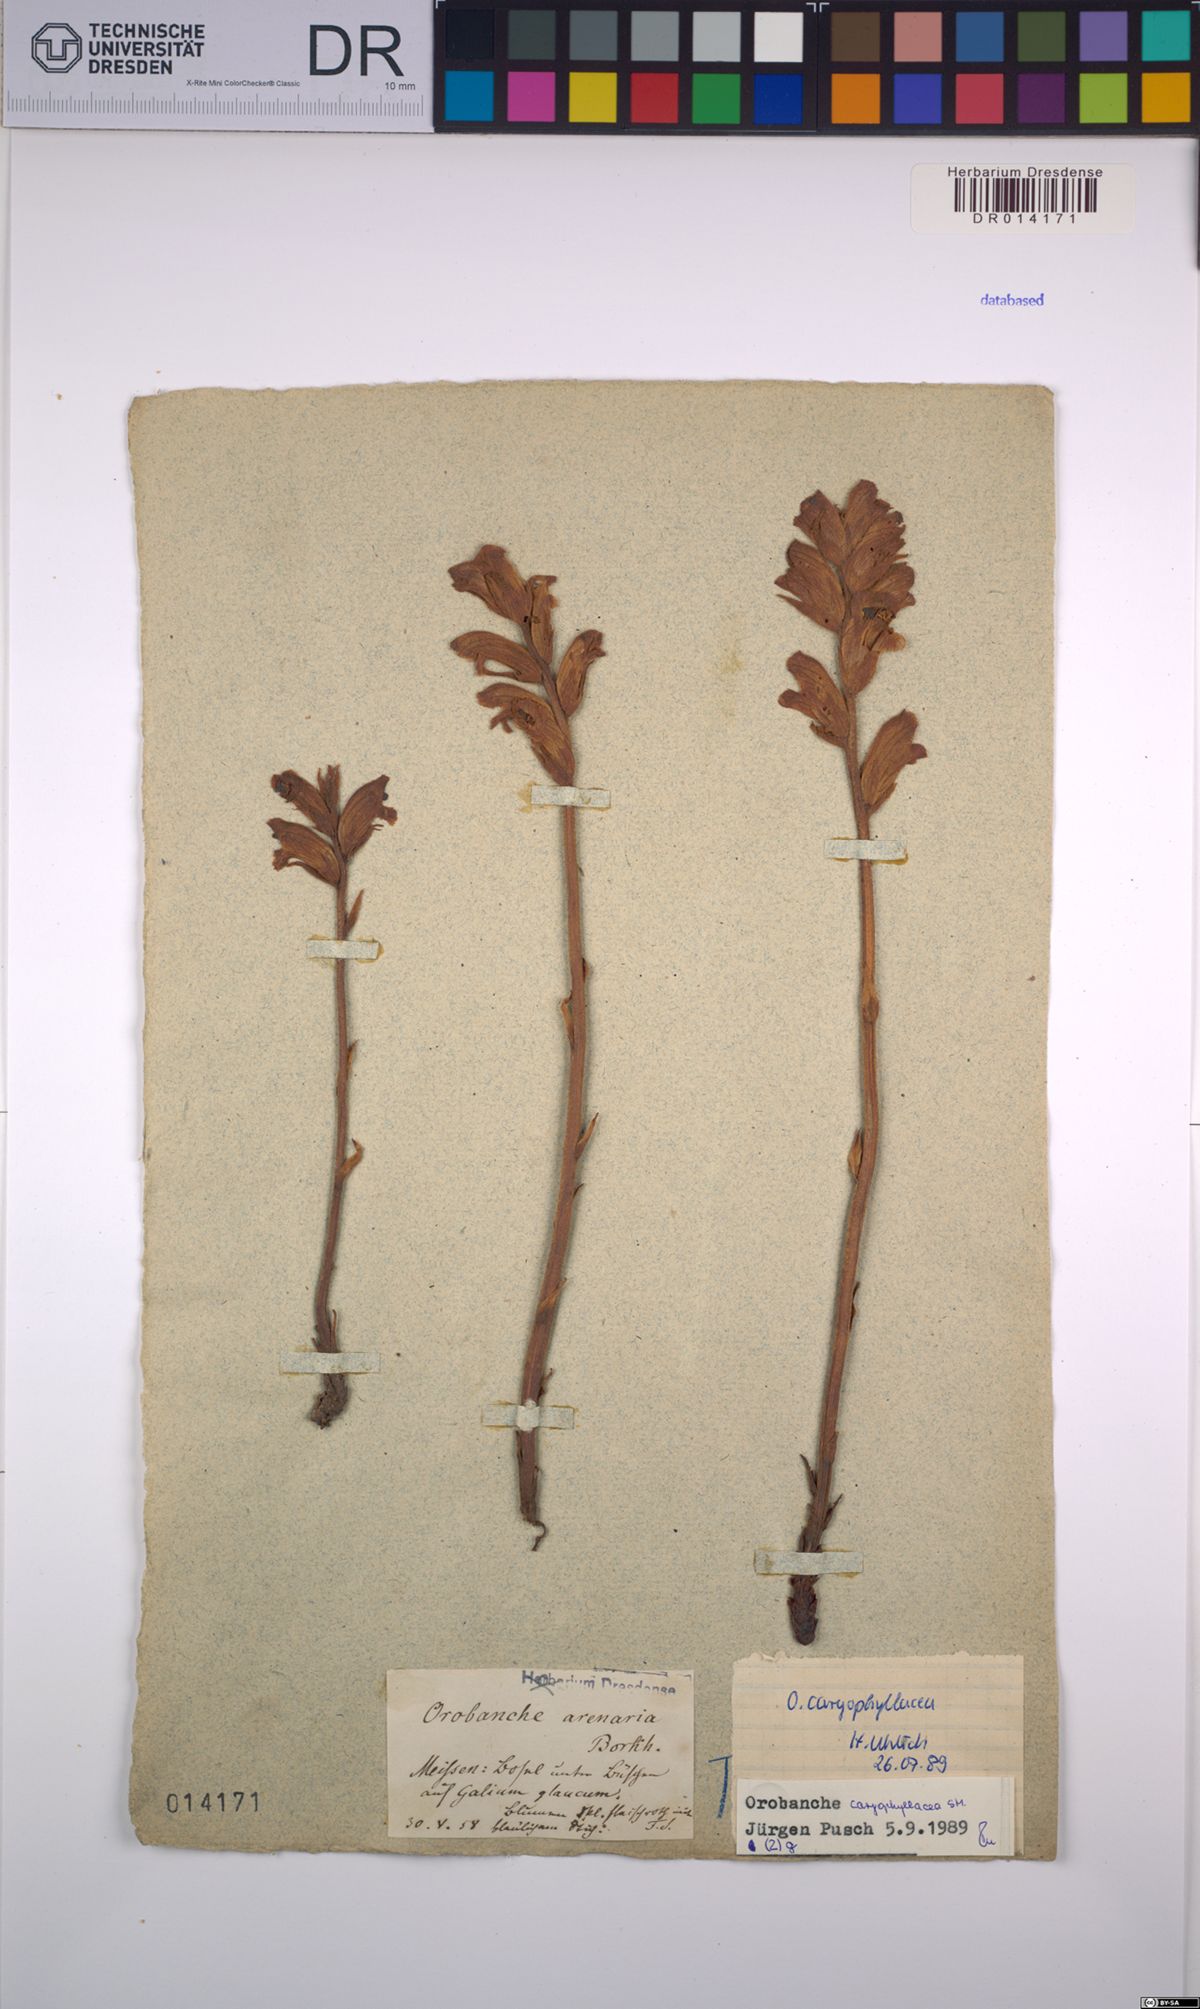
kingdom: Plantae
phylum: Tracheophyta
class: Magnoliopsida
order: Lamiales
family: Orobanchaceae
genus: Orobanche
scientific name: Orobanche caryophyllacea
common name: Bedstraw broomrape
